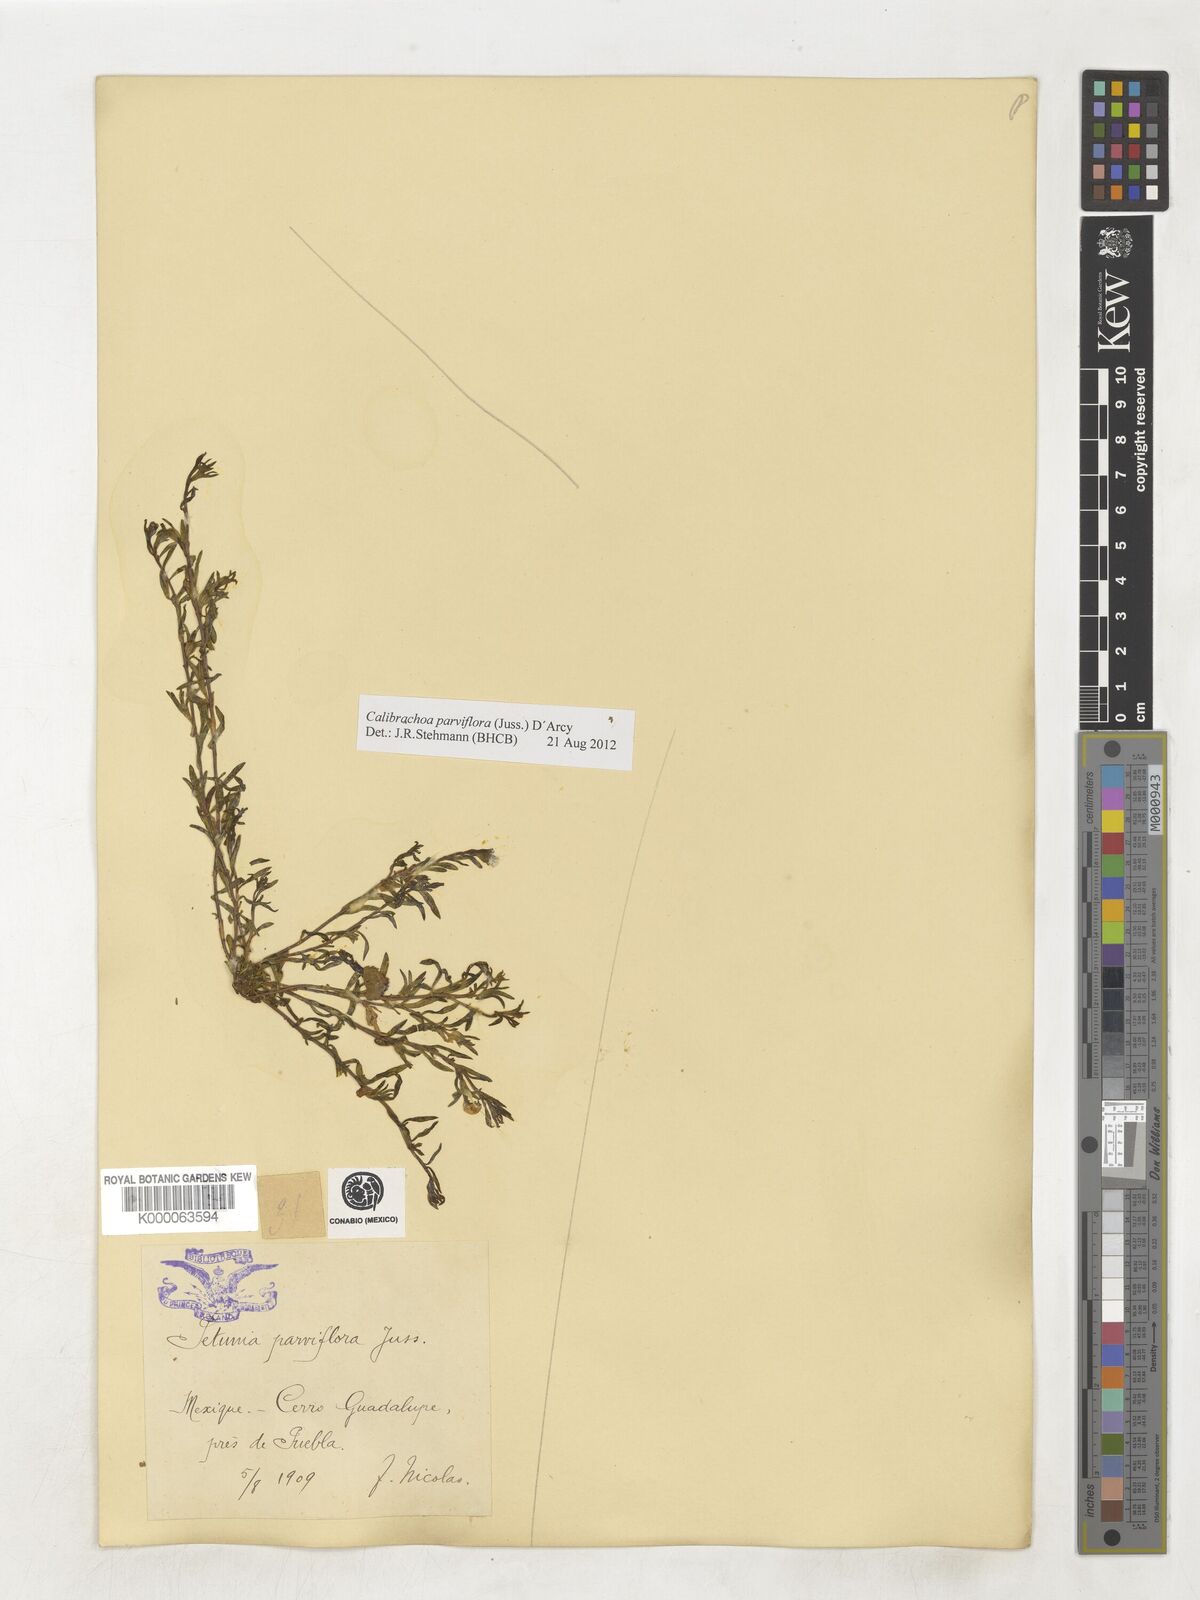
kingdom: Plantae
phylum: Tracheophyta
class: Magnoliopsida
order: Solanales
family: Solanaceae
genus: Calibrachoa
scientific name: Calibrachoa parviflora
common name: Seaside petunia
